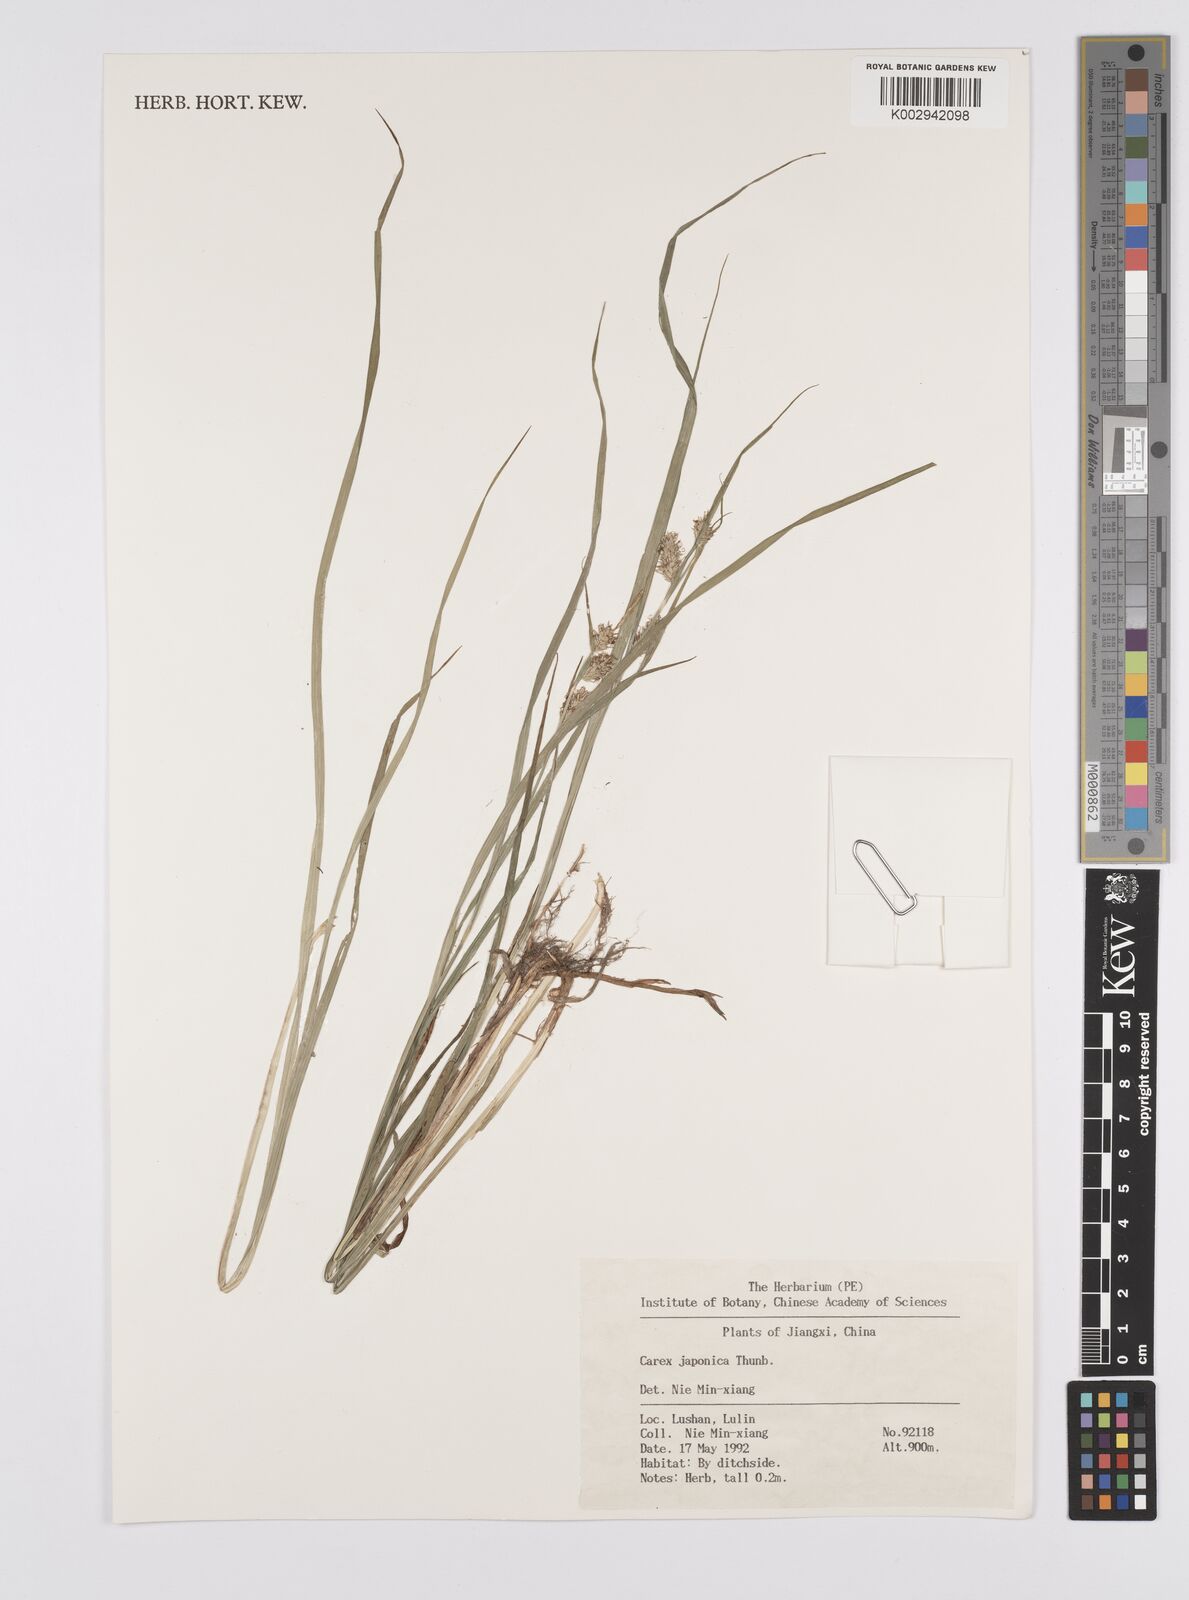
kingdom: Plantae
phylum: Tracheophyta
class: Liliopsida
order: Poales
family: Cyperaceae
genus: Carex
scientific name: Carex japonica
